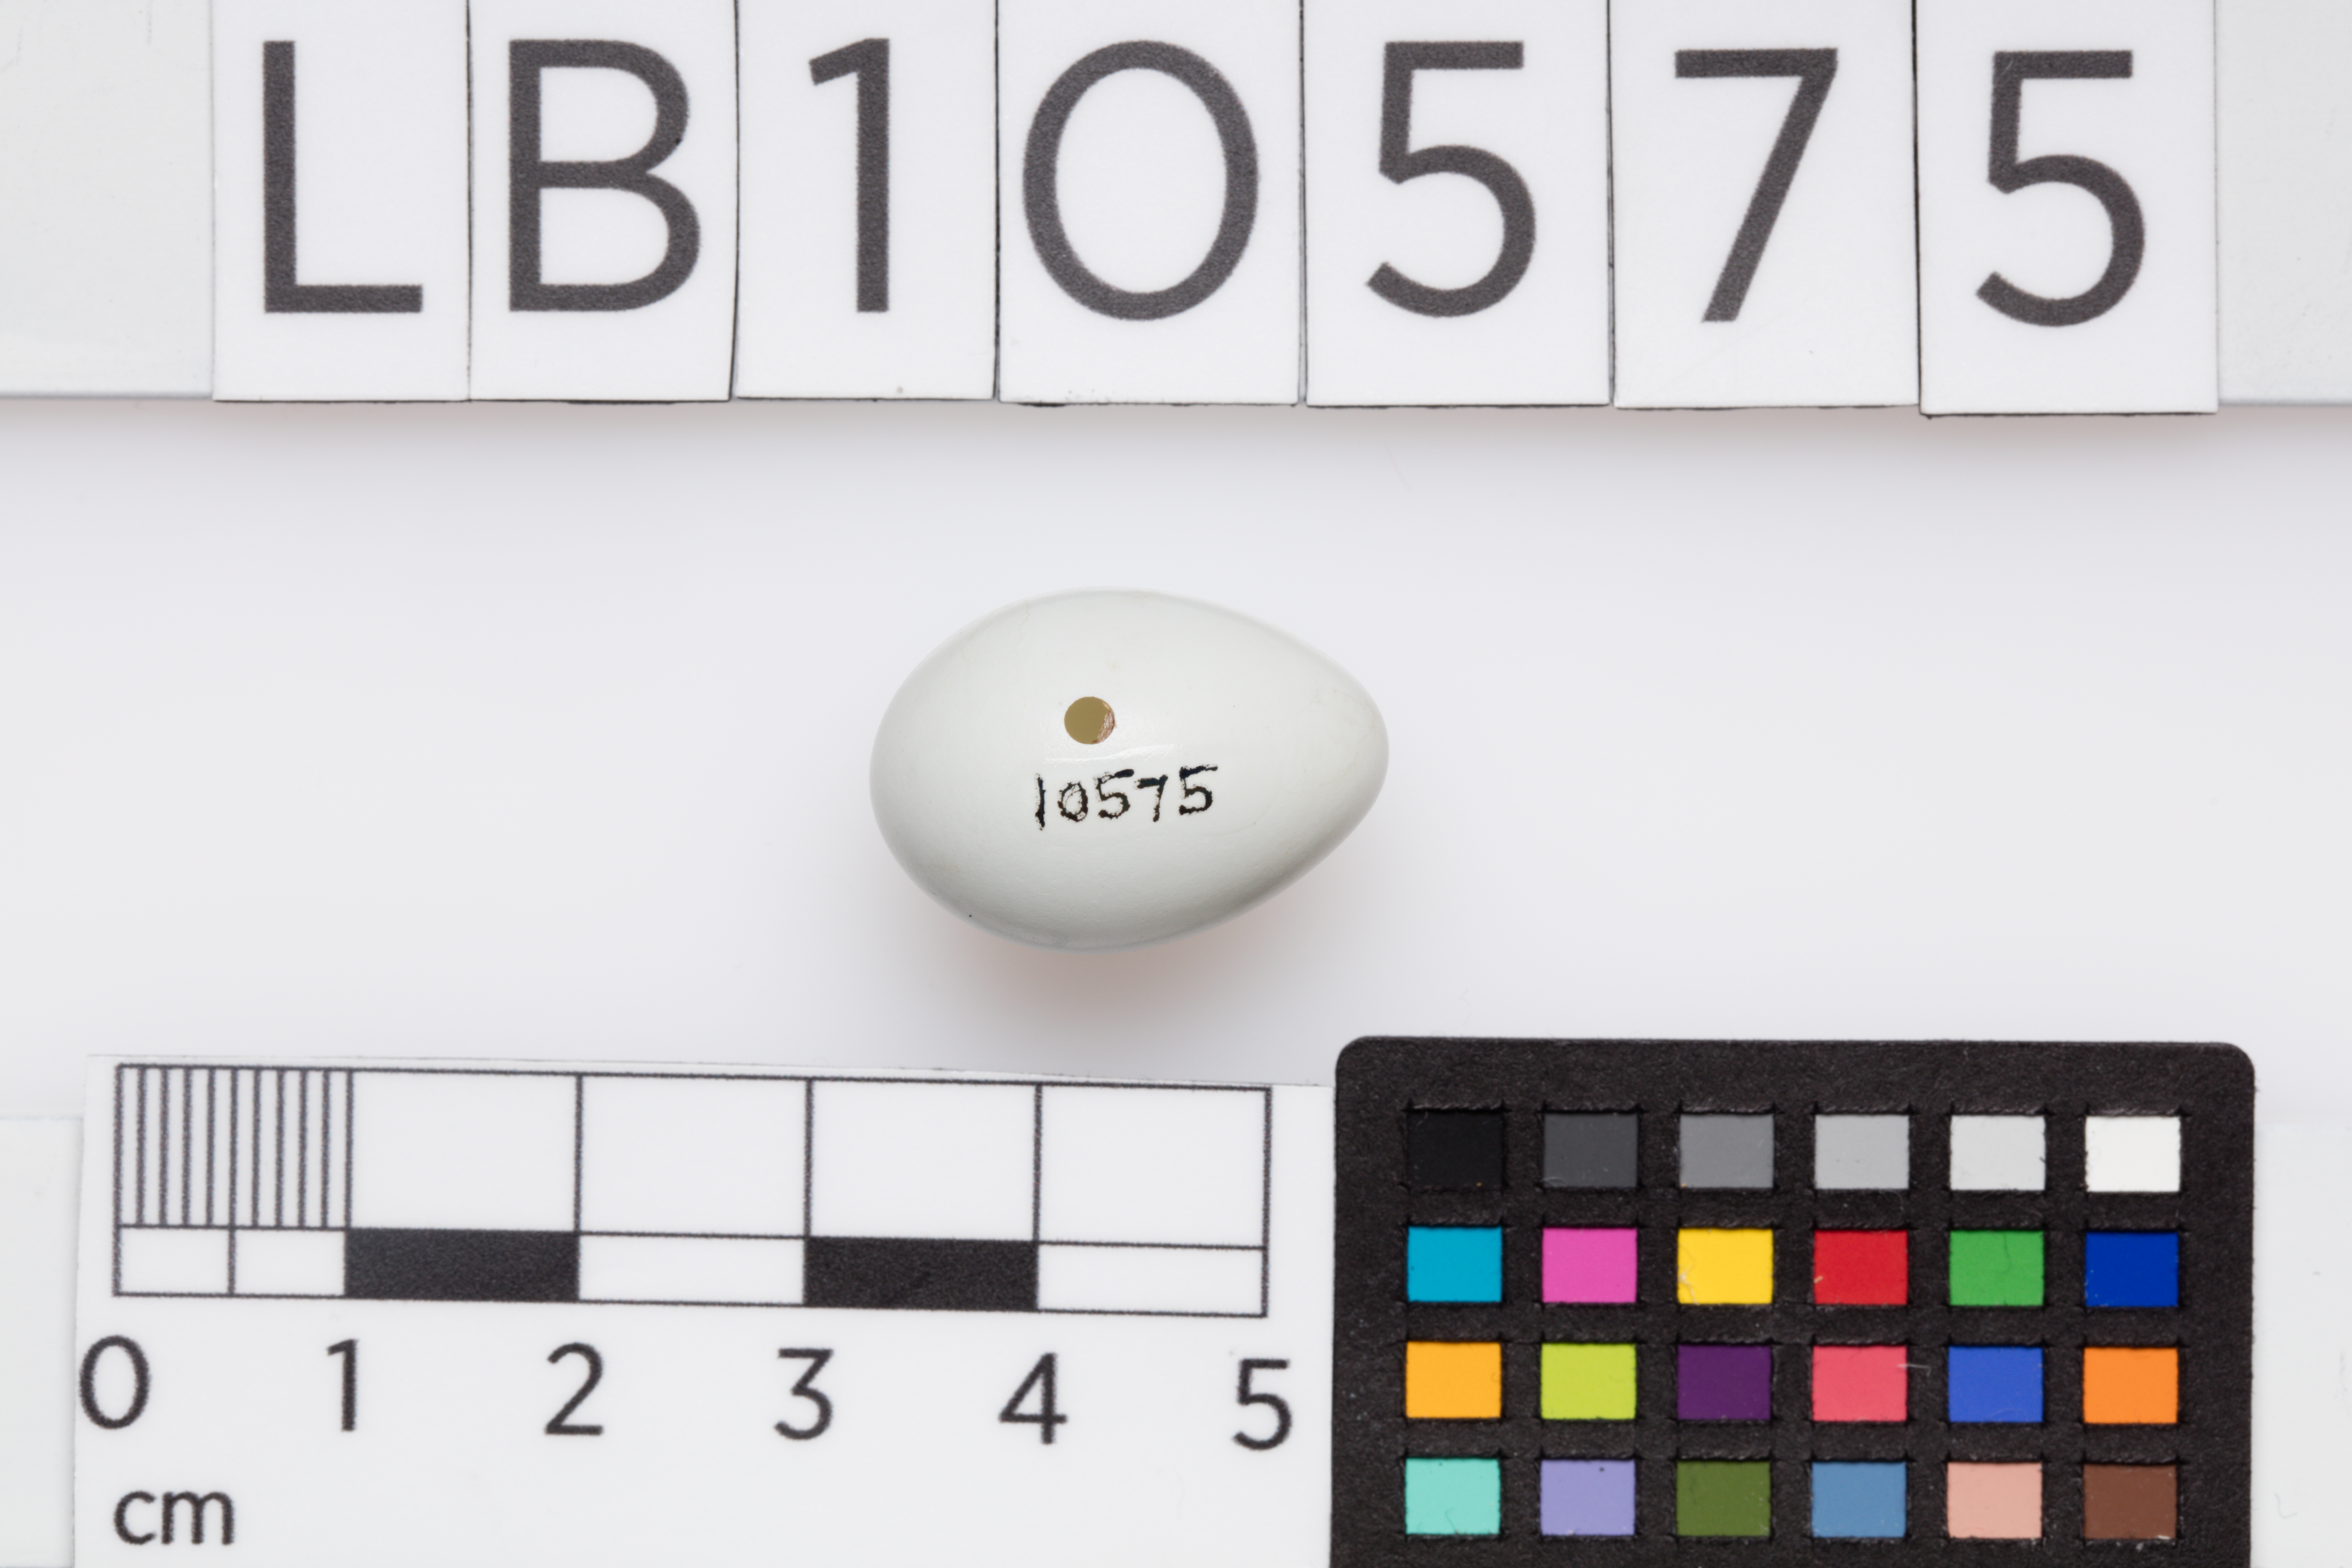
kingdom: Animalia
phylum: Chordata
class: Aves
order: Passeriformes
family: Muscicapidae
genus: Oenanthe
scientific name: Oenanthe oenanthe
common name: Northern wheatear
